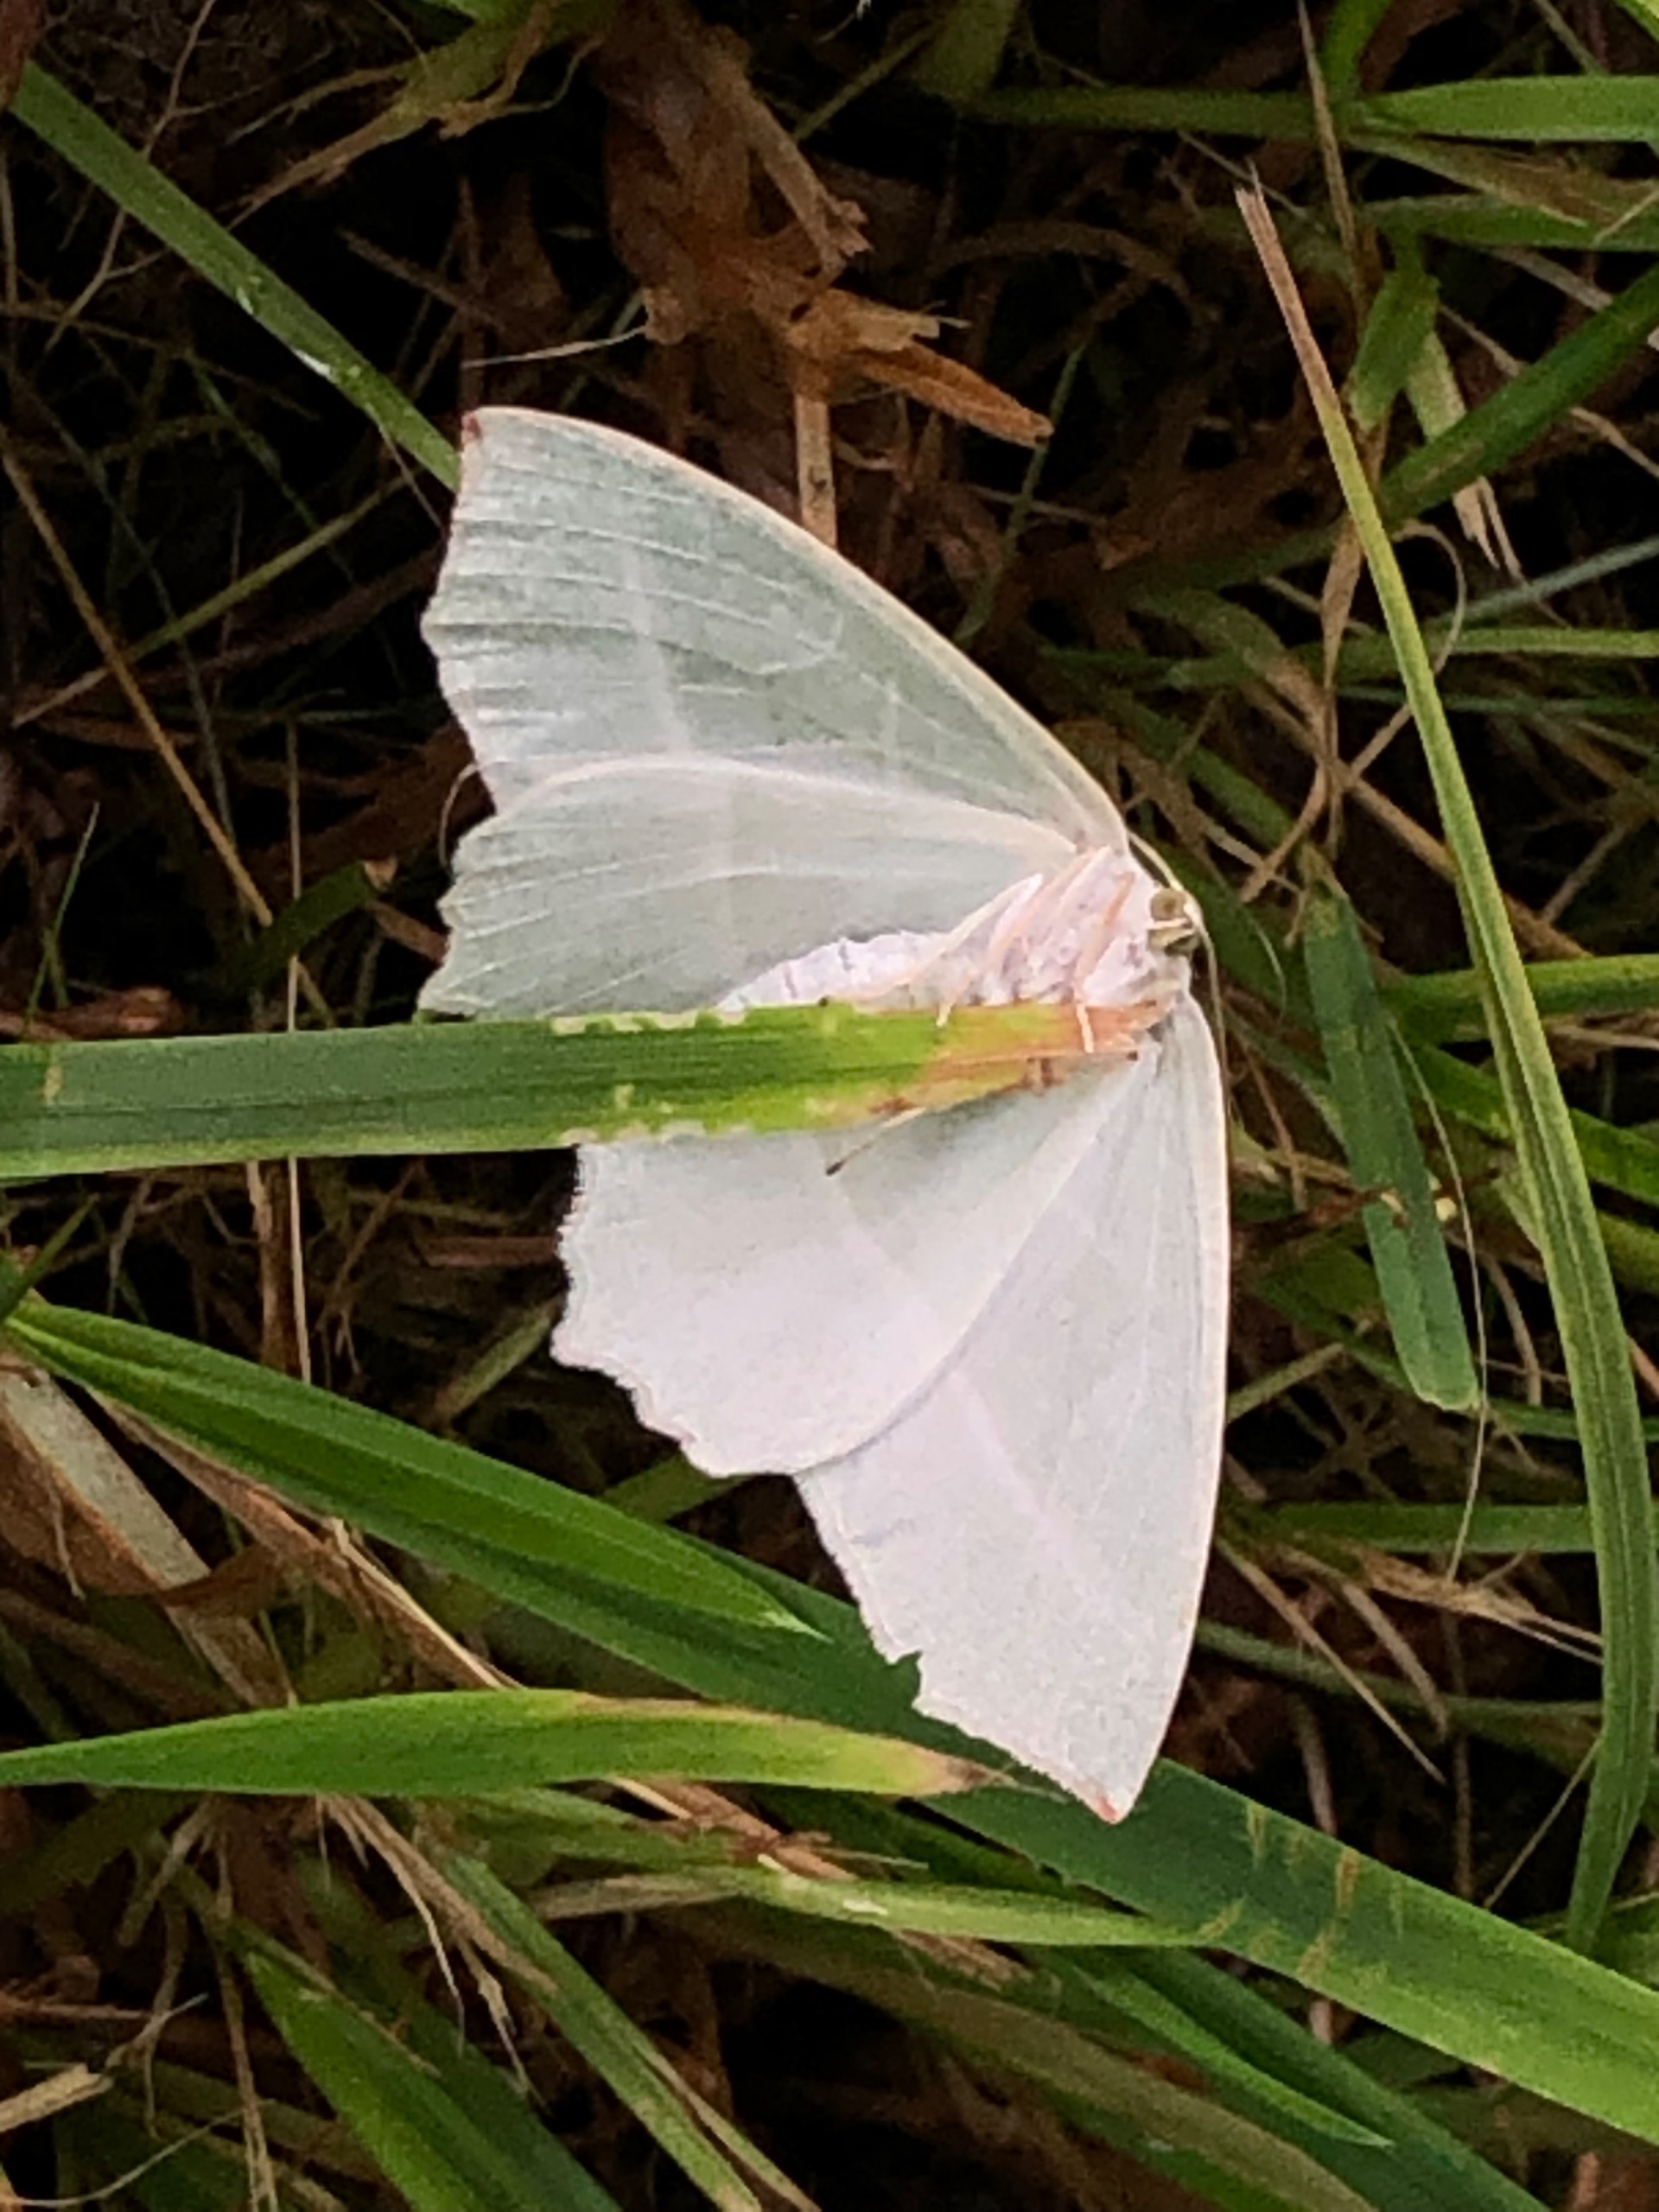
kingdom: Animalia
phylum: Arthropoda
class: Insecta
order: Lepidoptera
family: Geometridae
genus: Campaea
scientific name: Campaea margaritaria
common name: Perlemåler
